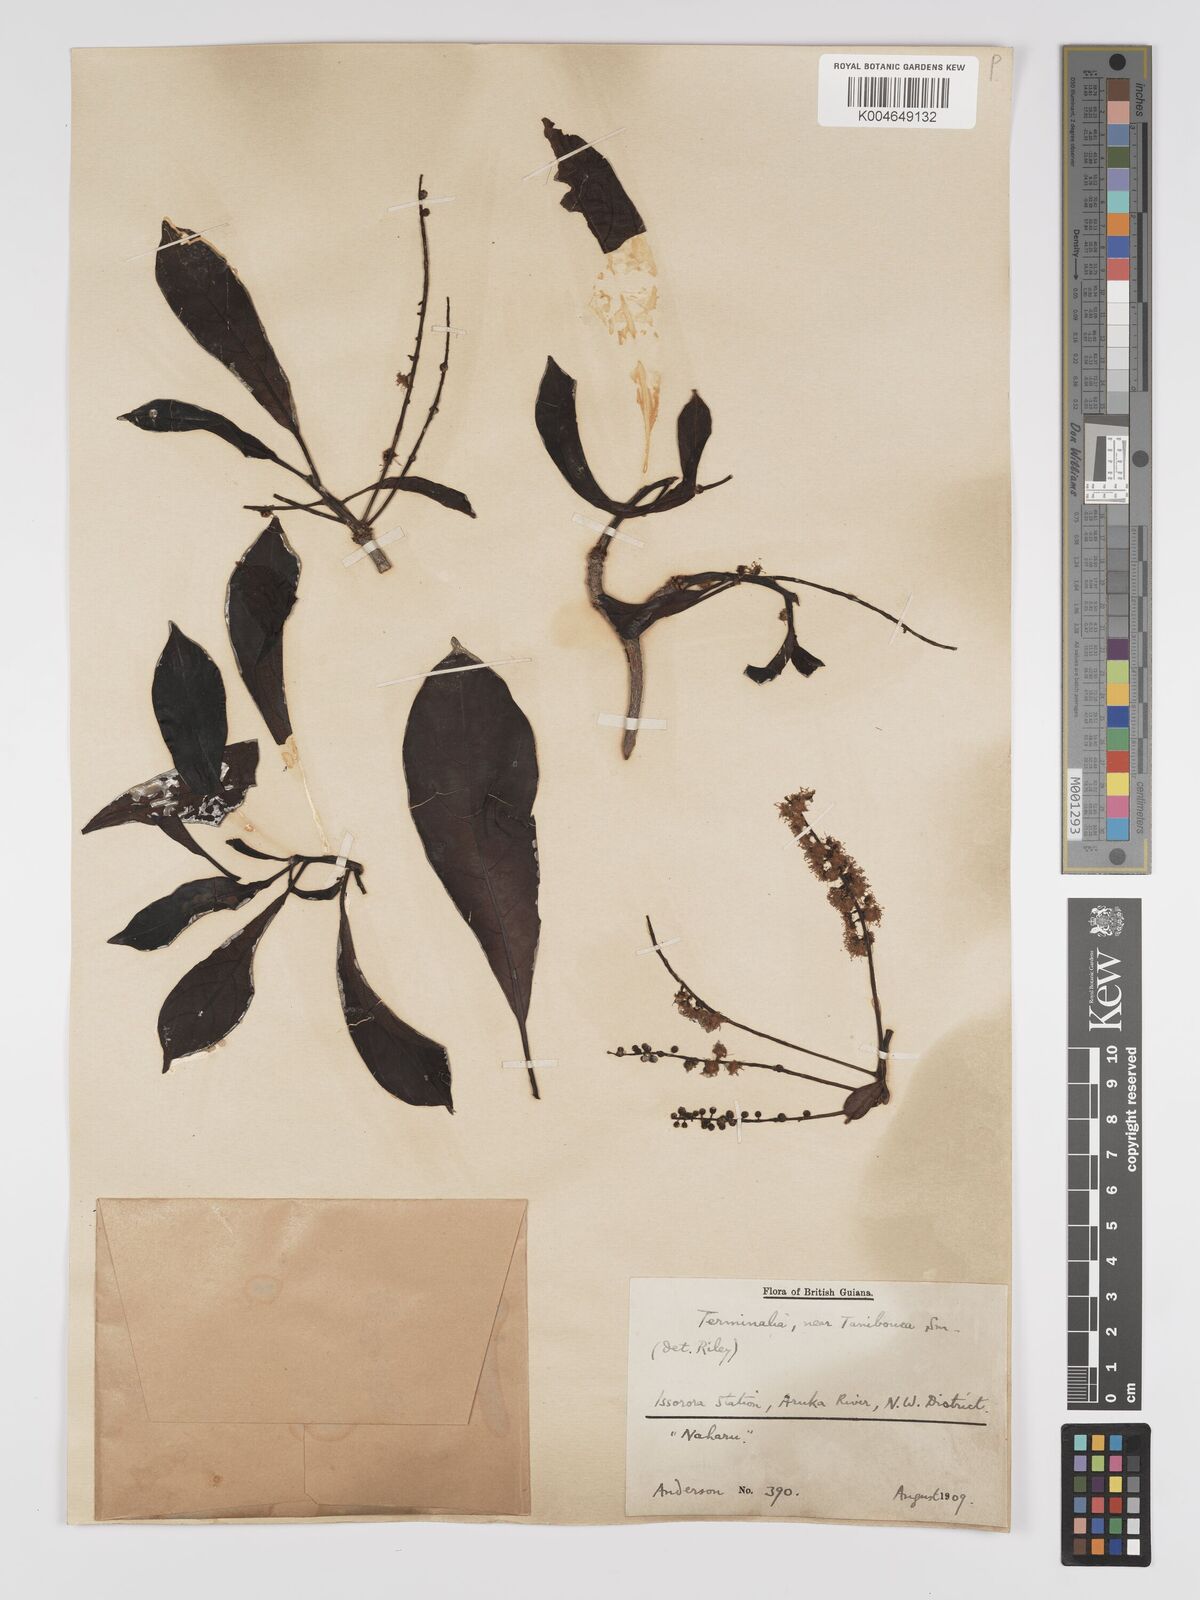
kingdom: Plantae
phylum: Tracheophyta
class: Magnoliopsida
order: Myrtales
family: Combretaceae
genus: Terminalia
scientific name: Terminalia dichotoma
